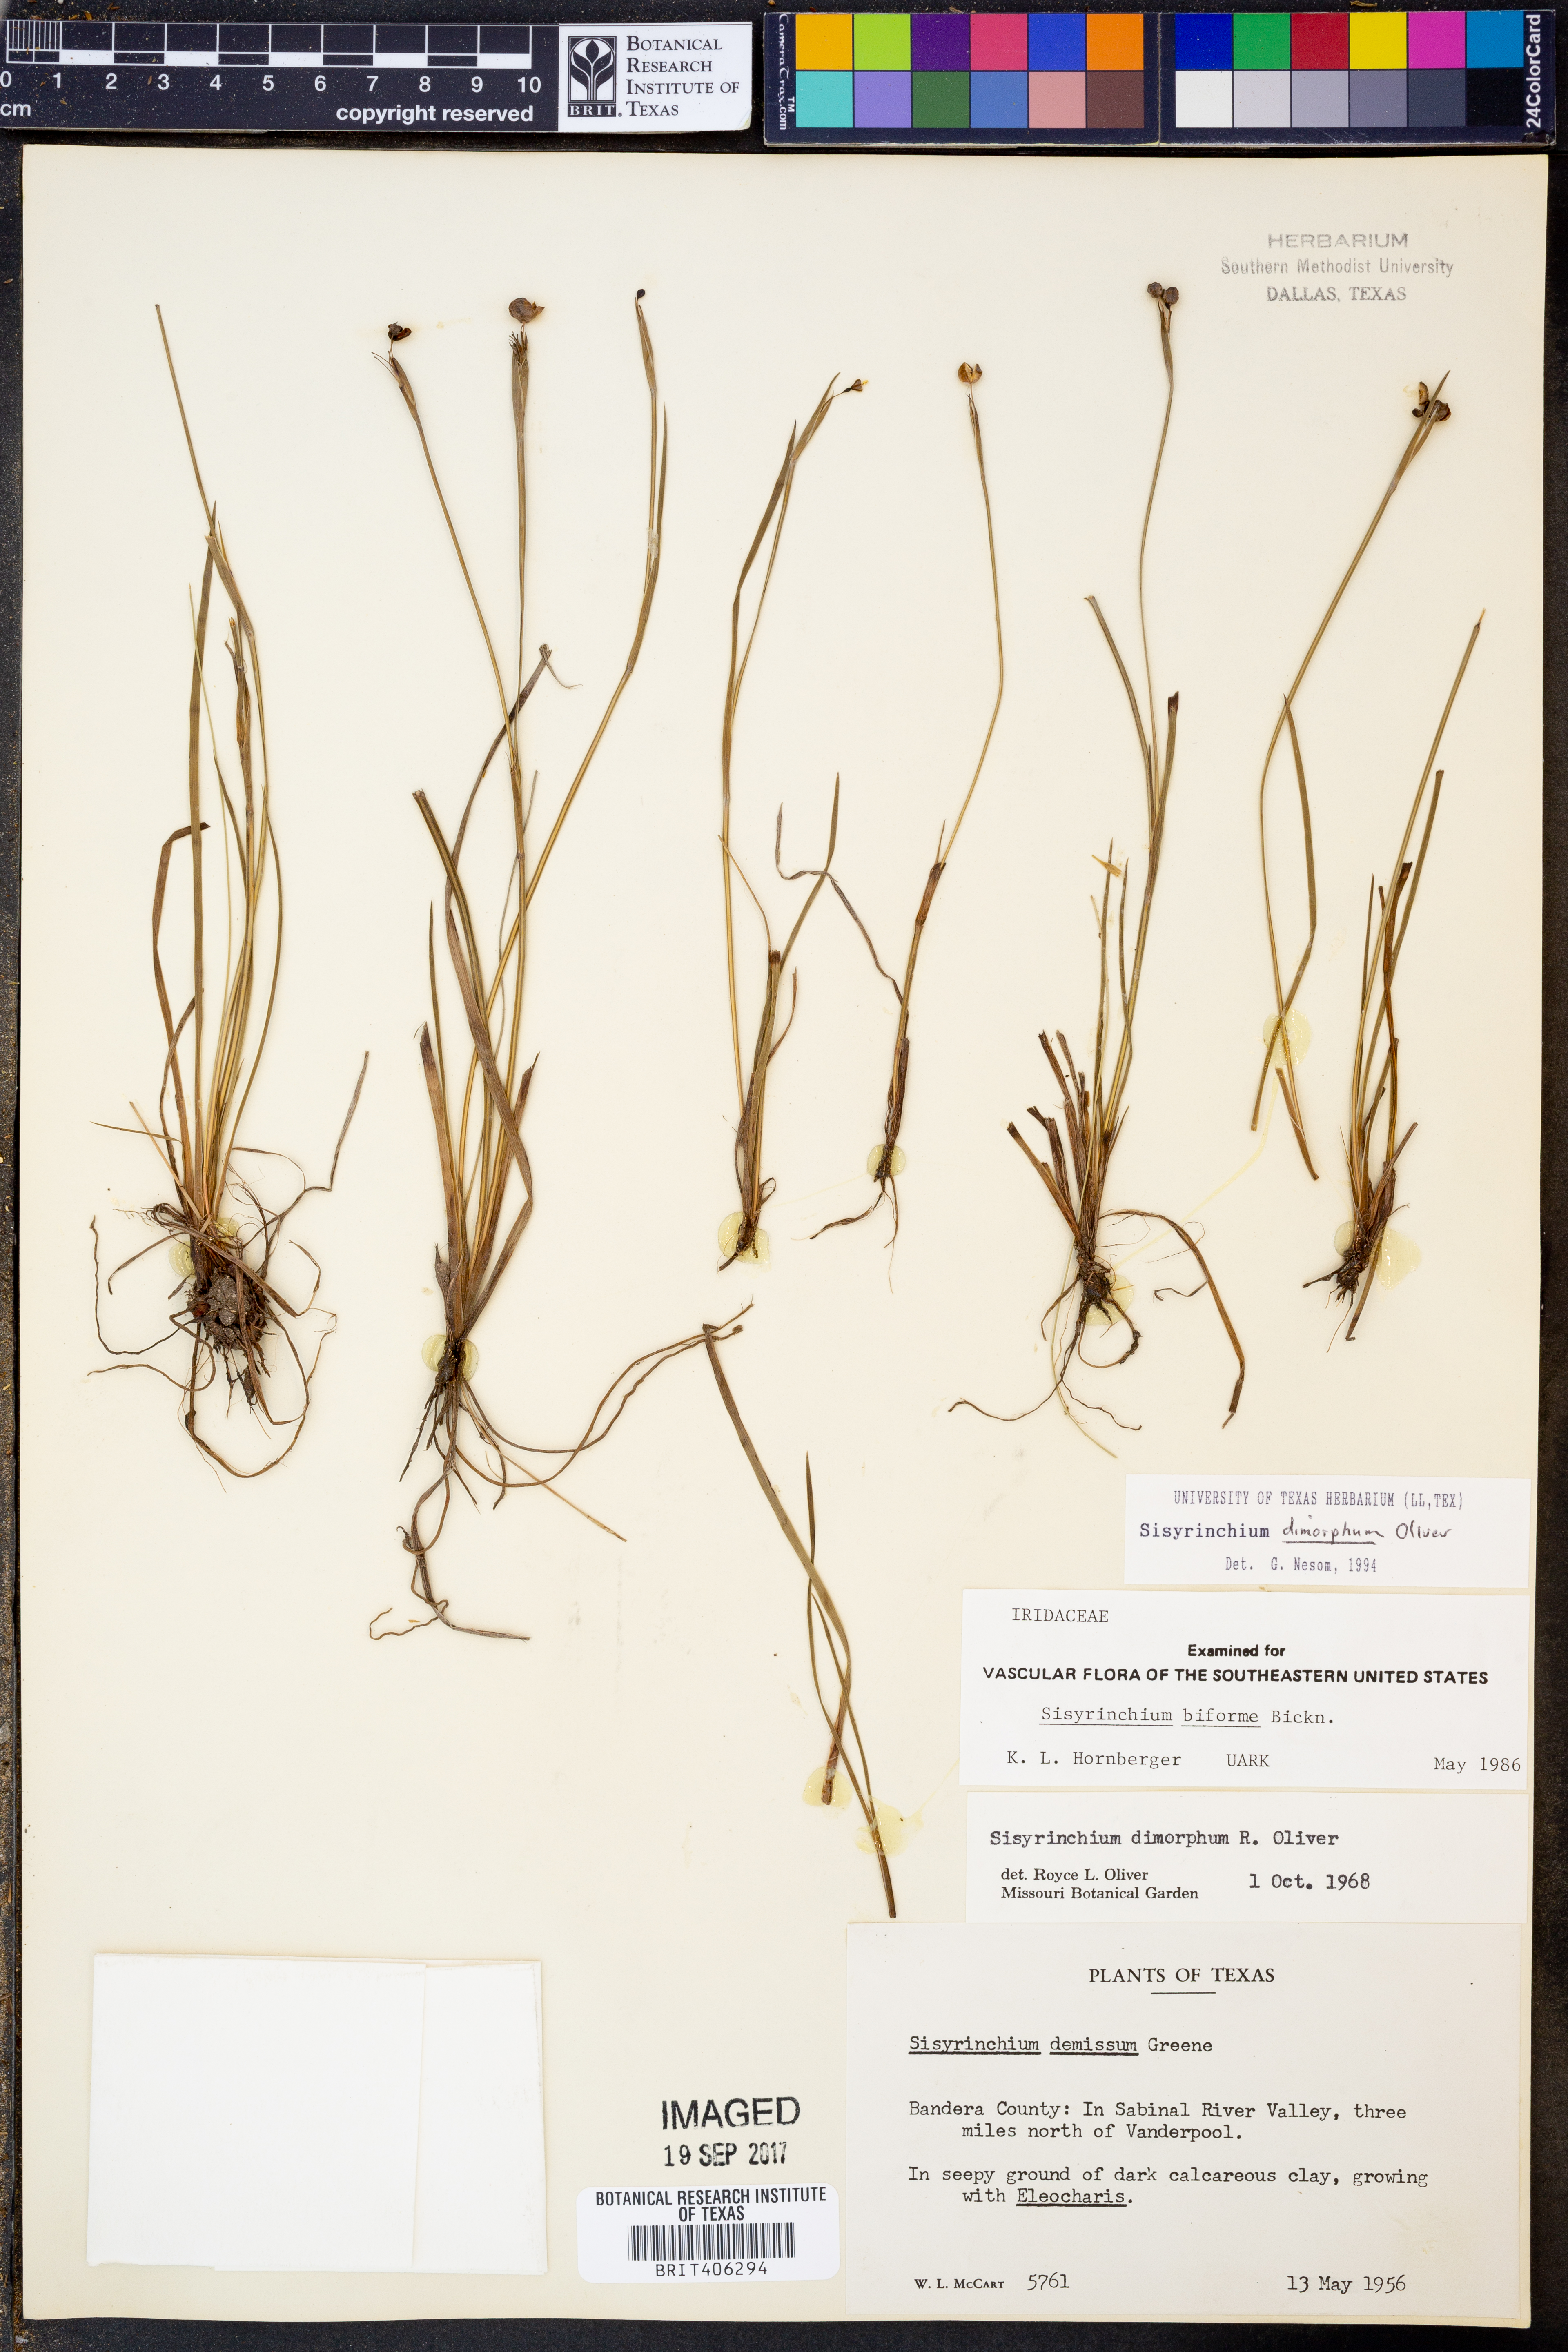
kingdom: Plantae
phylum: Tracheophyta
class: Liliopsida
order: Asparagales
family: Iridaceae
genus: Sisyrinchium
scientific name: Sisyrinchium dimorphum
